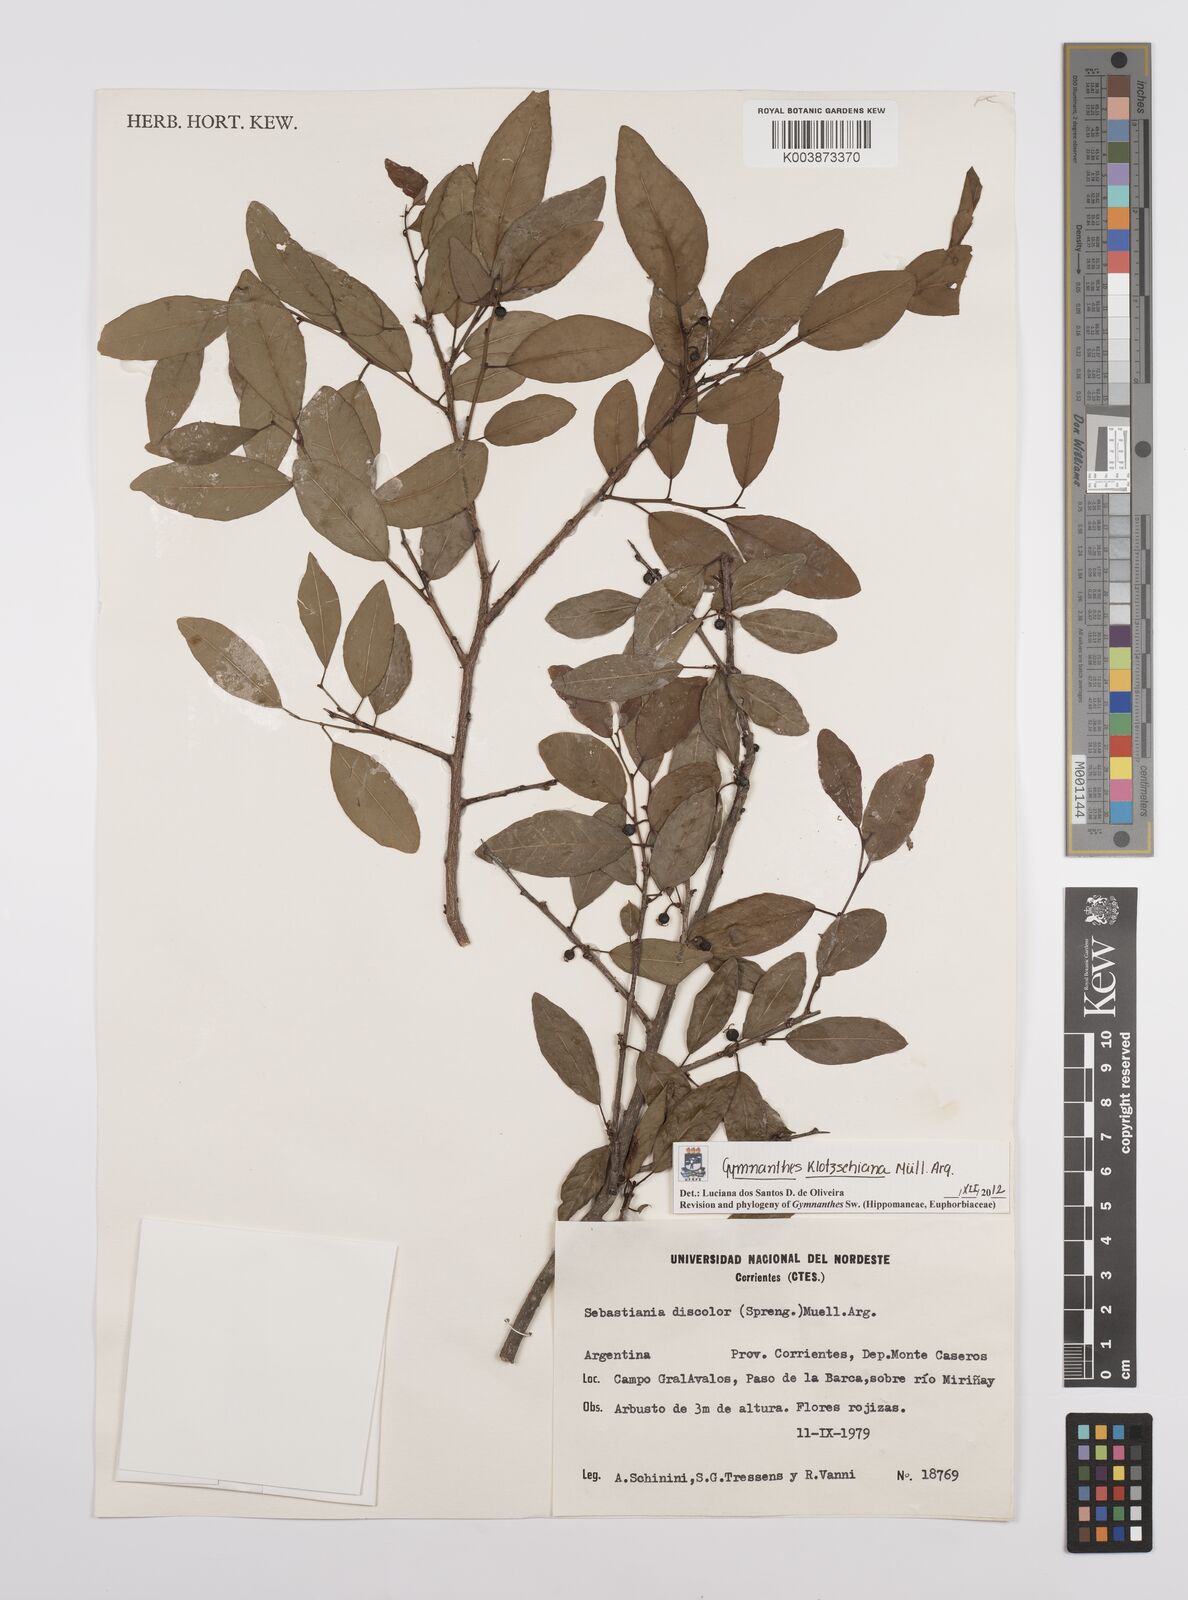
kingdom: Plantae
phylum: Tracheophyta
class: Magnoliopsida
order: Malpighiales
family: Euphorbiaceae
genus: Sebastiania
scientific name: Sebastiania klotzschiana
